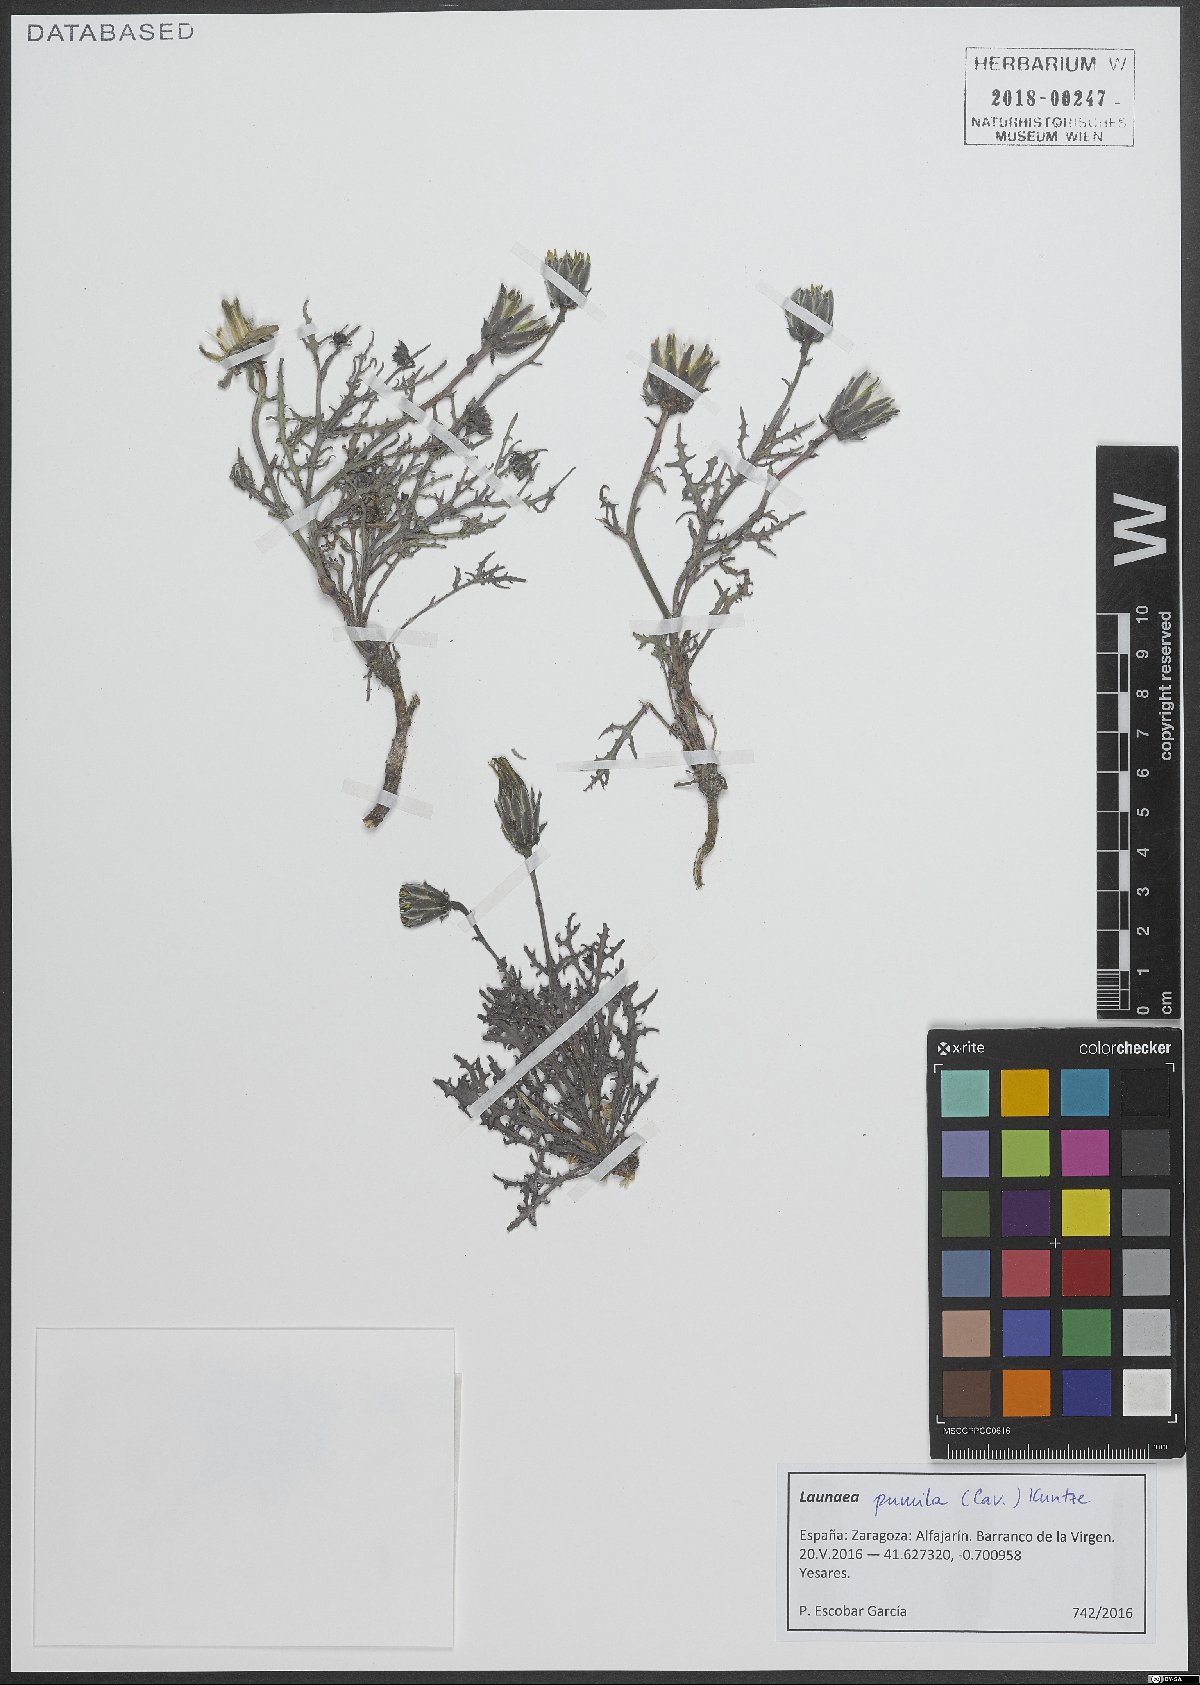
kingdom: Plantae
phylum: Tracheophyta
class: Magnoliopsida
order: Asterales
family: Asteraceae
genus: Launaea
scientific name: Launaea pumila
